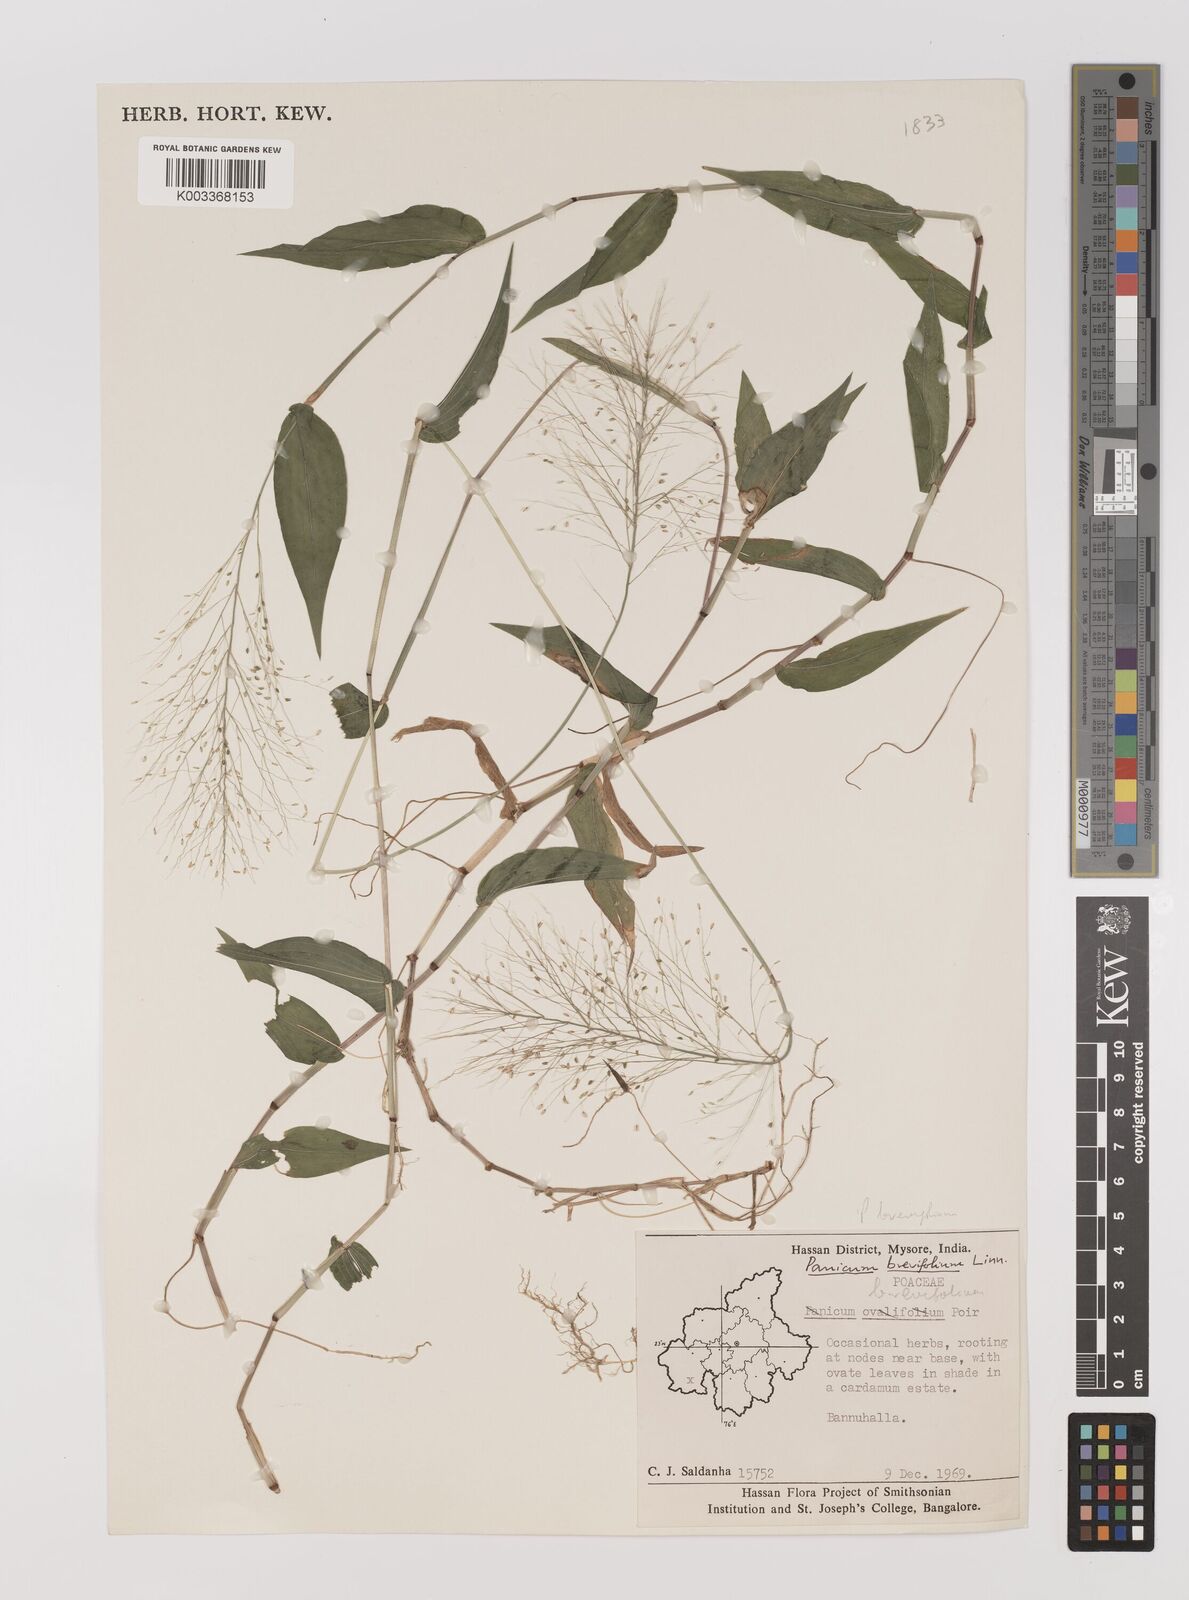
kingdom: Plantae
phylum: Tracheophyta
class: Liliopsida
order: Poales
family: Poaceae
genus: Panicum
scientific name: Panicum brevifolium
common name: Shortleaf panic grass
